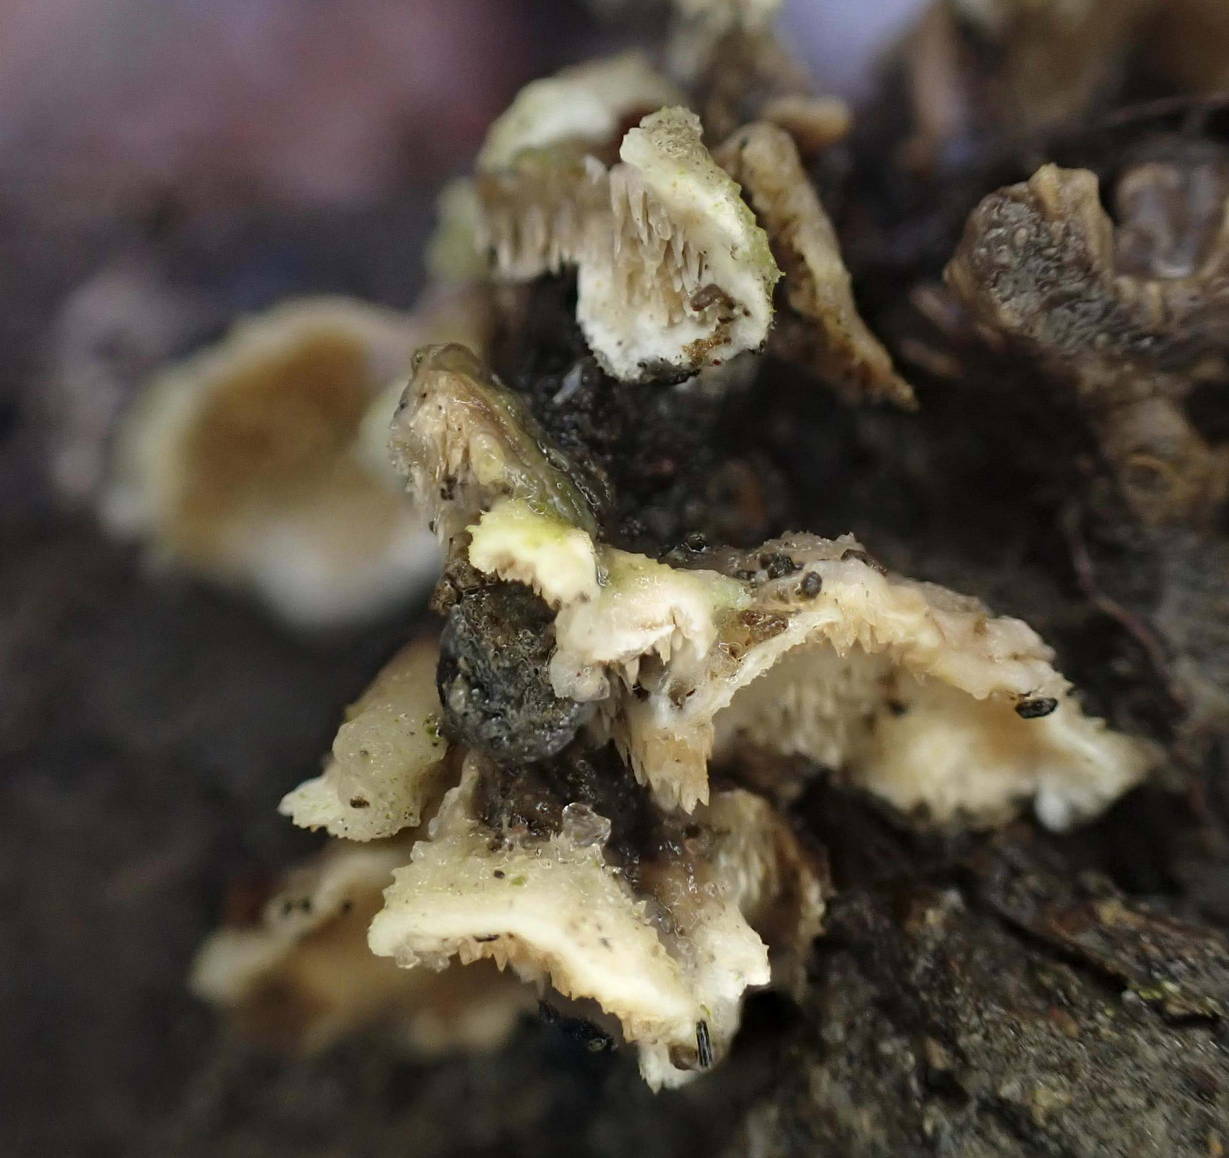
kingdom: Fungi
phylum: Basidiomycota
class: Agaricomycetes
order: Polyporales
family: Steccherinaceae
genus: Steccherinum
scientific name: Steccherinum bourdotii
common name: hat-skønpig
